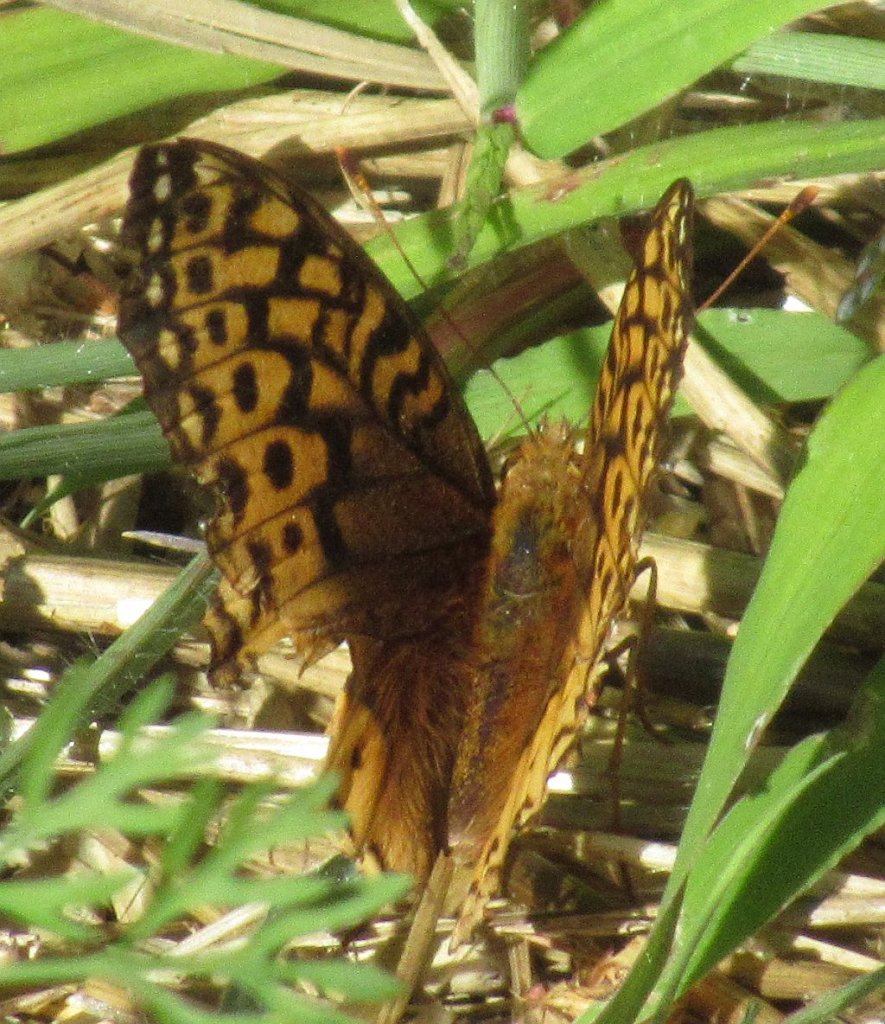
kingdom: Animalia
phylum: Arthropoda
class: Insecta
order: Lepidoptera
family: Nymphalidae
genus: Speyeria
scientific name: Speyeria cybele
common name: Great Spangled Fritillary
